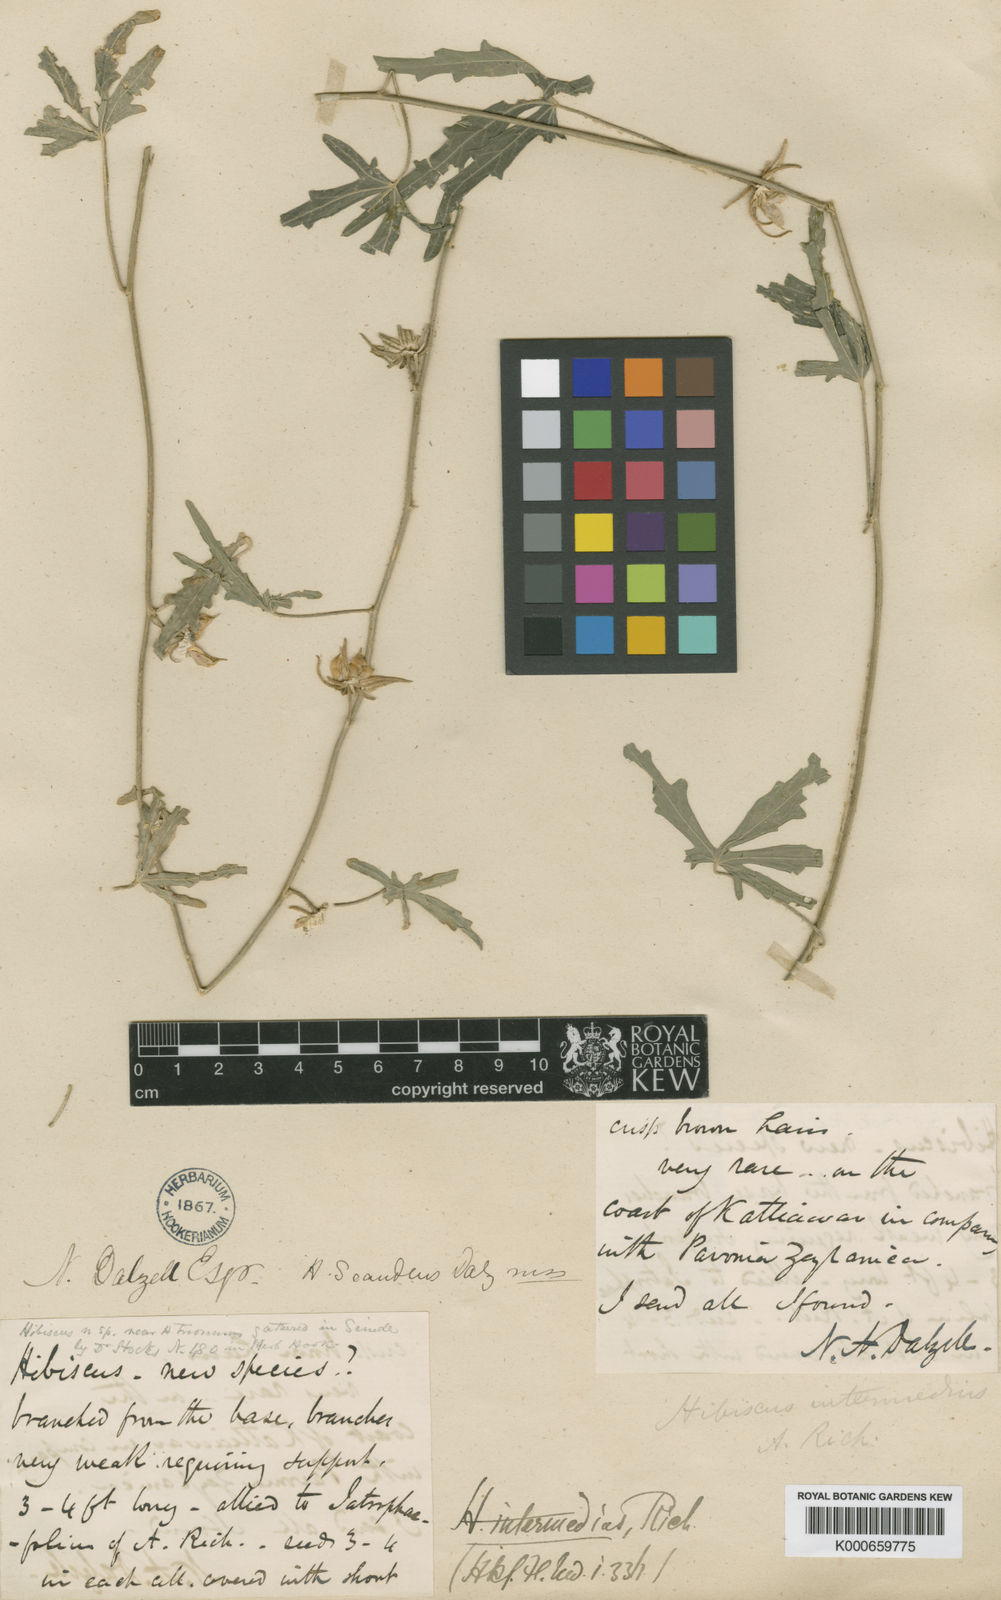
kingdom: Plantae
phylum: Tracheophyta
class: Magnoliopsida
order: Malvales
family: Malvaceae
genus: Hibiscus
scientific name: Hibiscus palmatus
